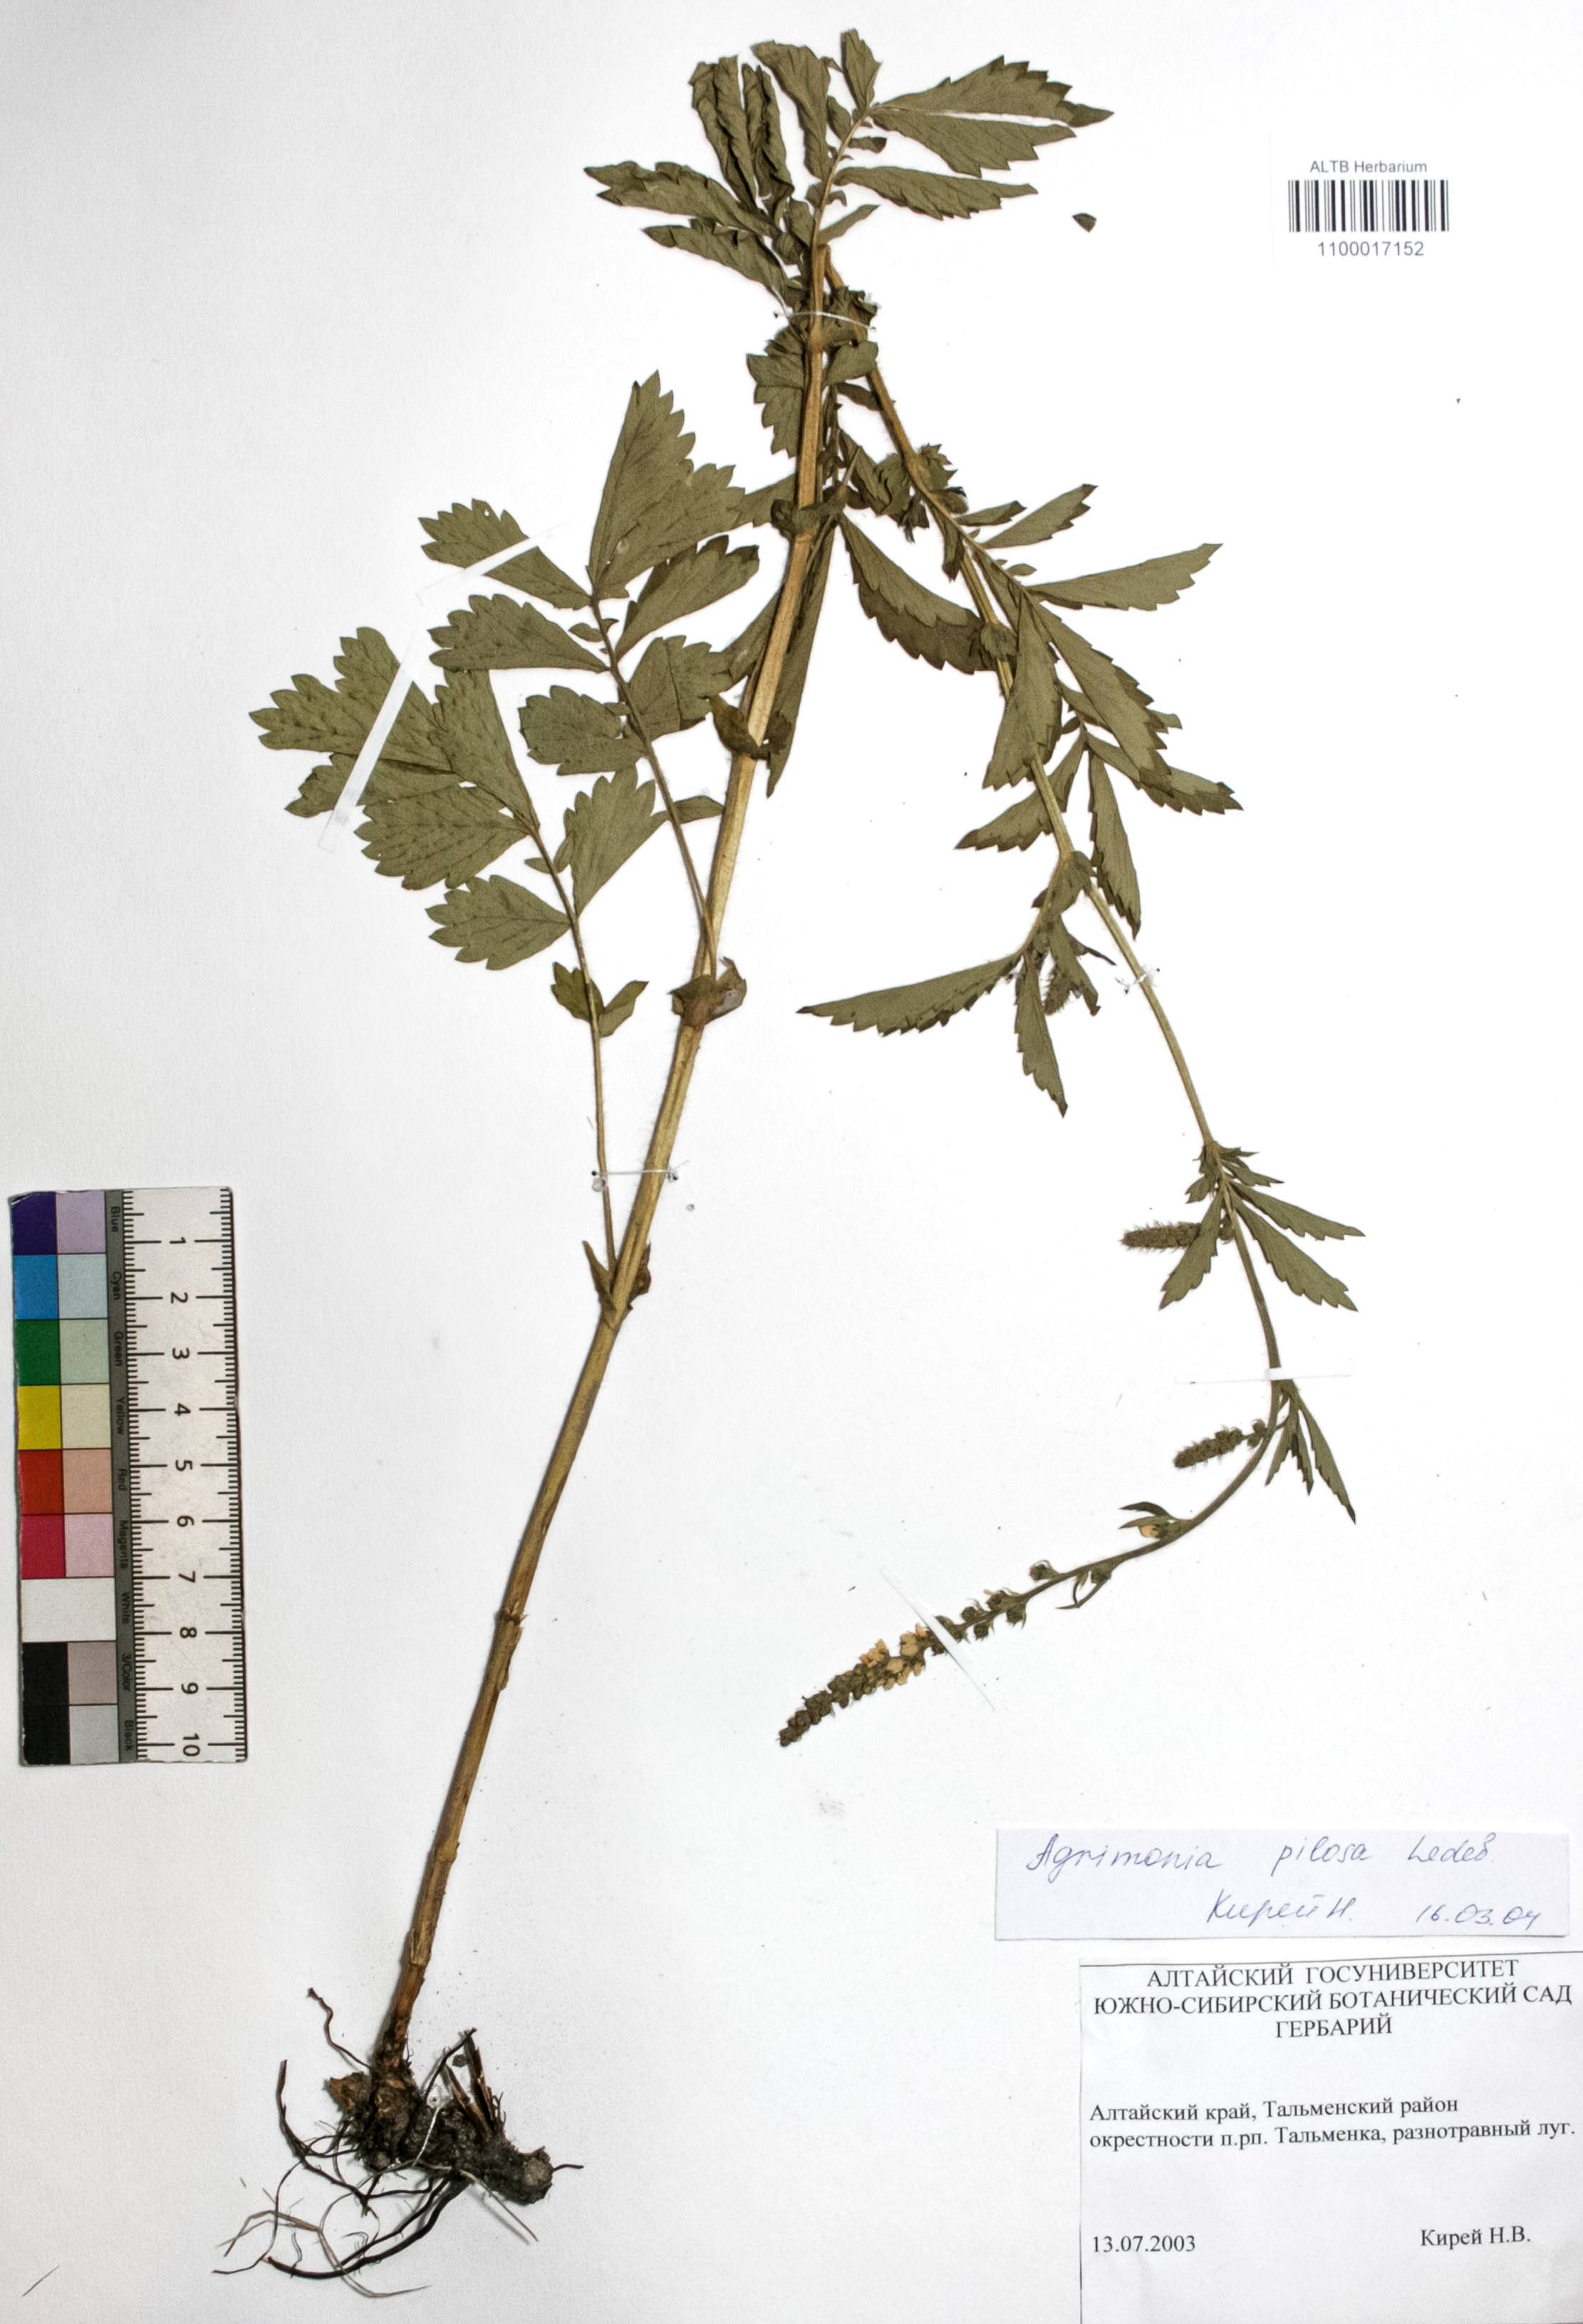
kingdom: Plantae
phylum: Tracheophyta
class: Magnoliopsida
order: Rosales
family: Rosaceae
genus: Agrimonia
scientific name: Agrimonia pilosa
